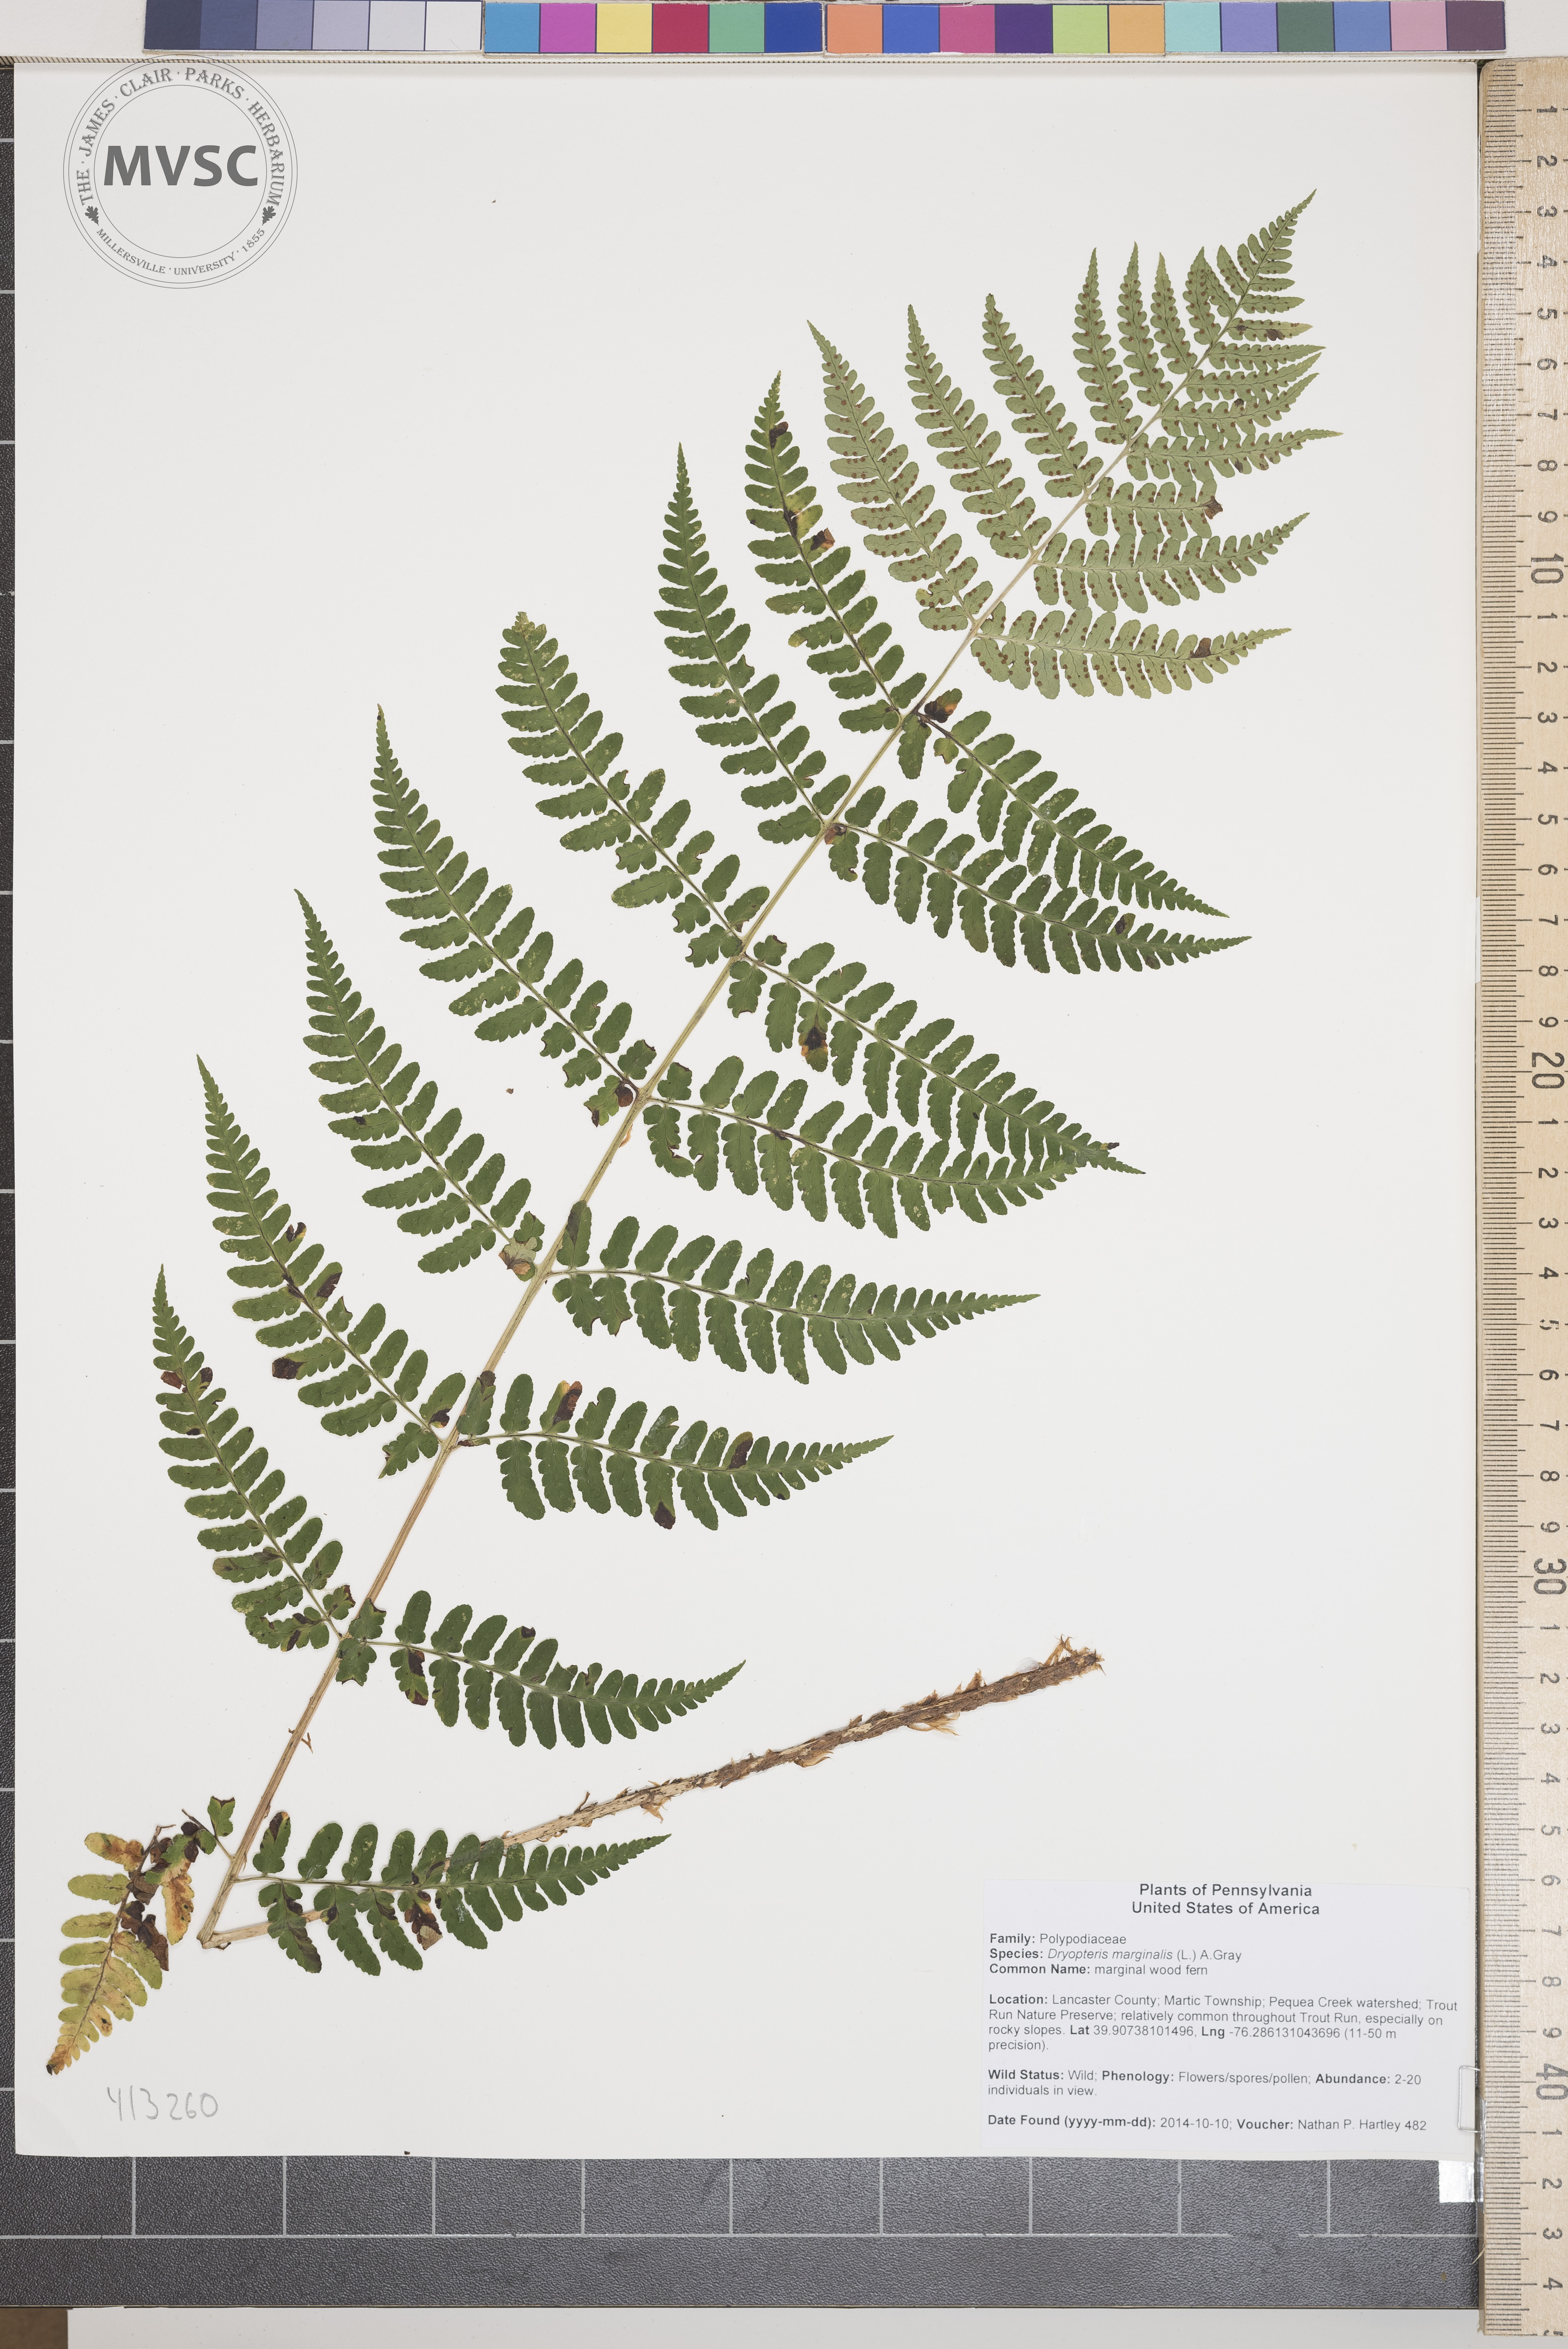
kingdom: Plantae
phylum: Tracheophyta
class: Polypodiopsida
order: Polypodiales
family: Dryopteridaceae
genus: Dryopteris
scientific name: Dryopteris marginalis
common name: marginal wood fern
